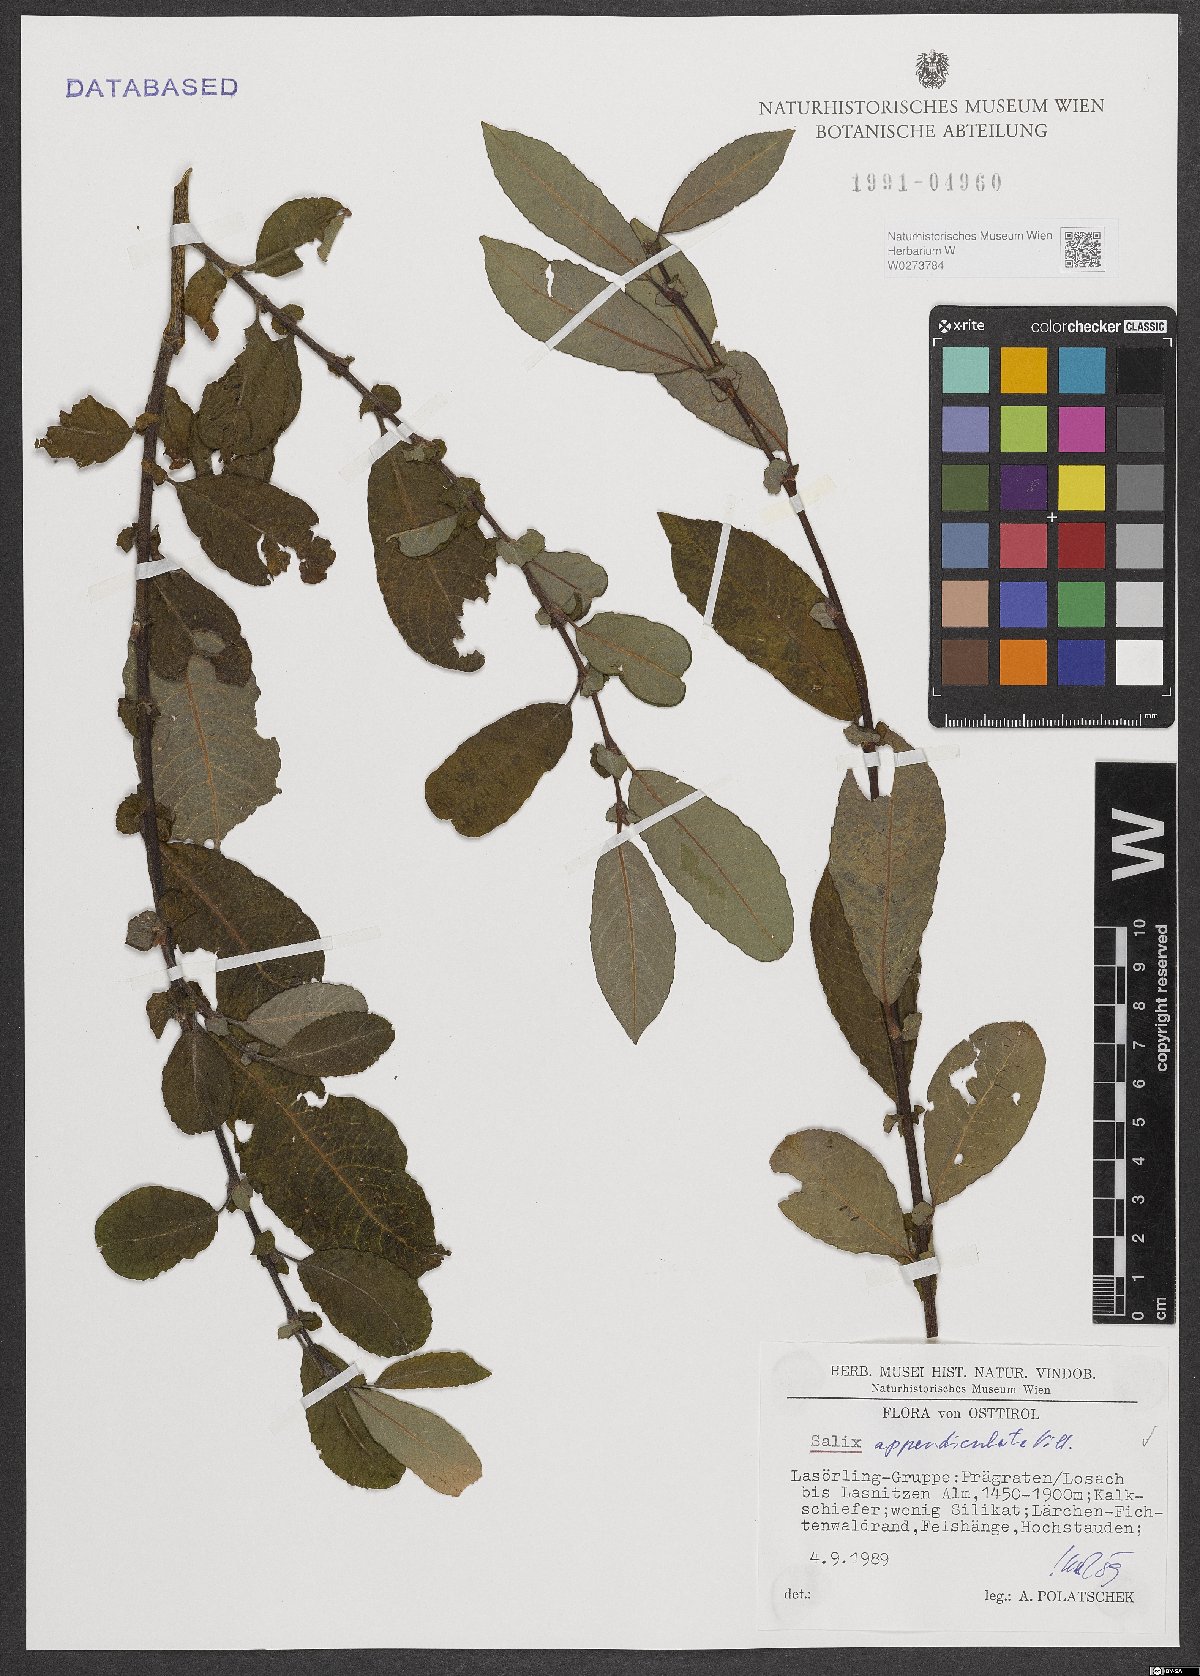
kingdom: Plantae
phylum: Tracheophyta
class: Magnoliopsida
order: Malpighiales
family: Salicaceae
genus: Salix
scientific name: Salix appendiculata
